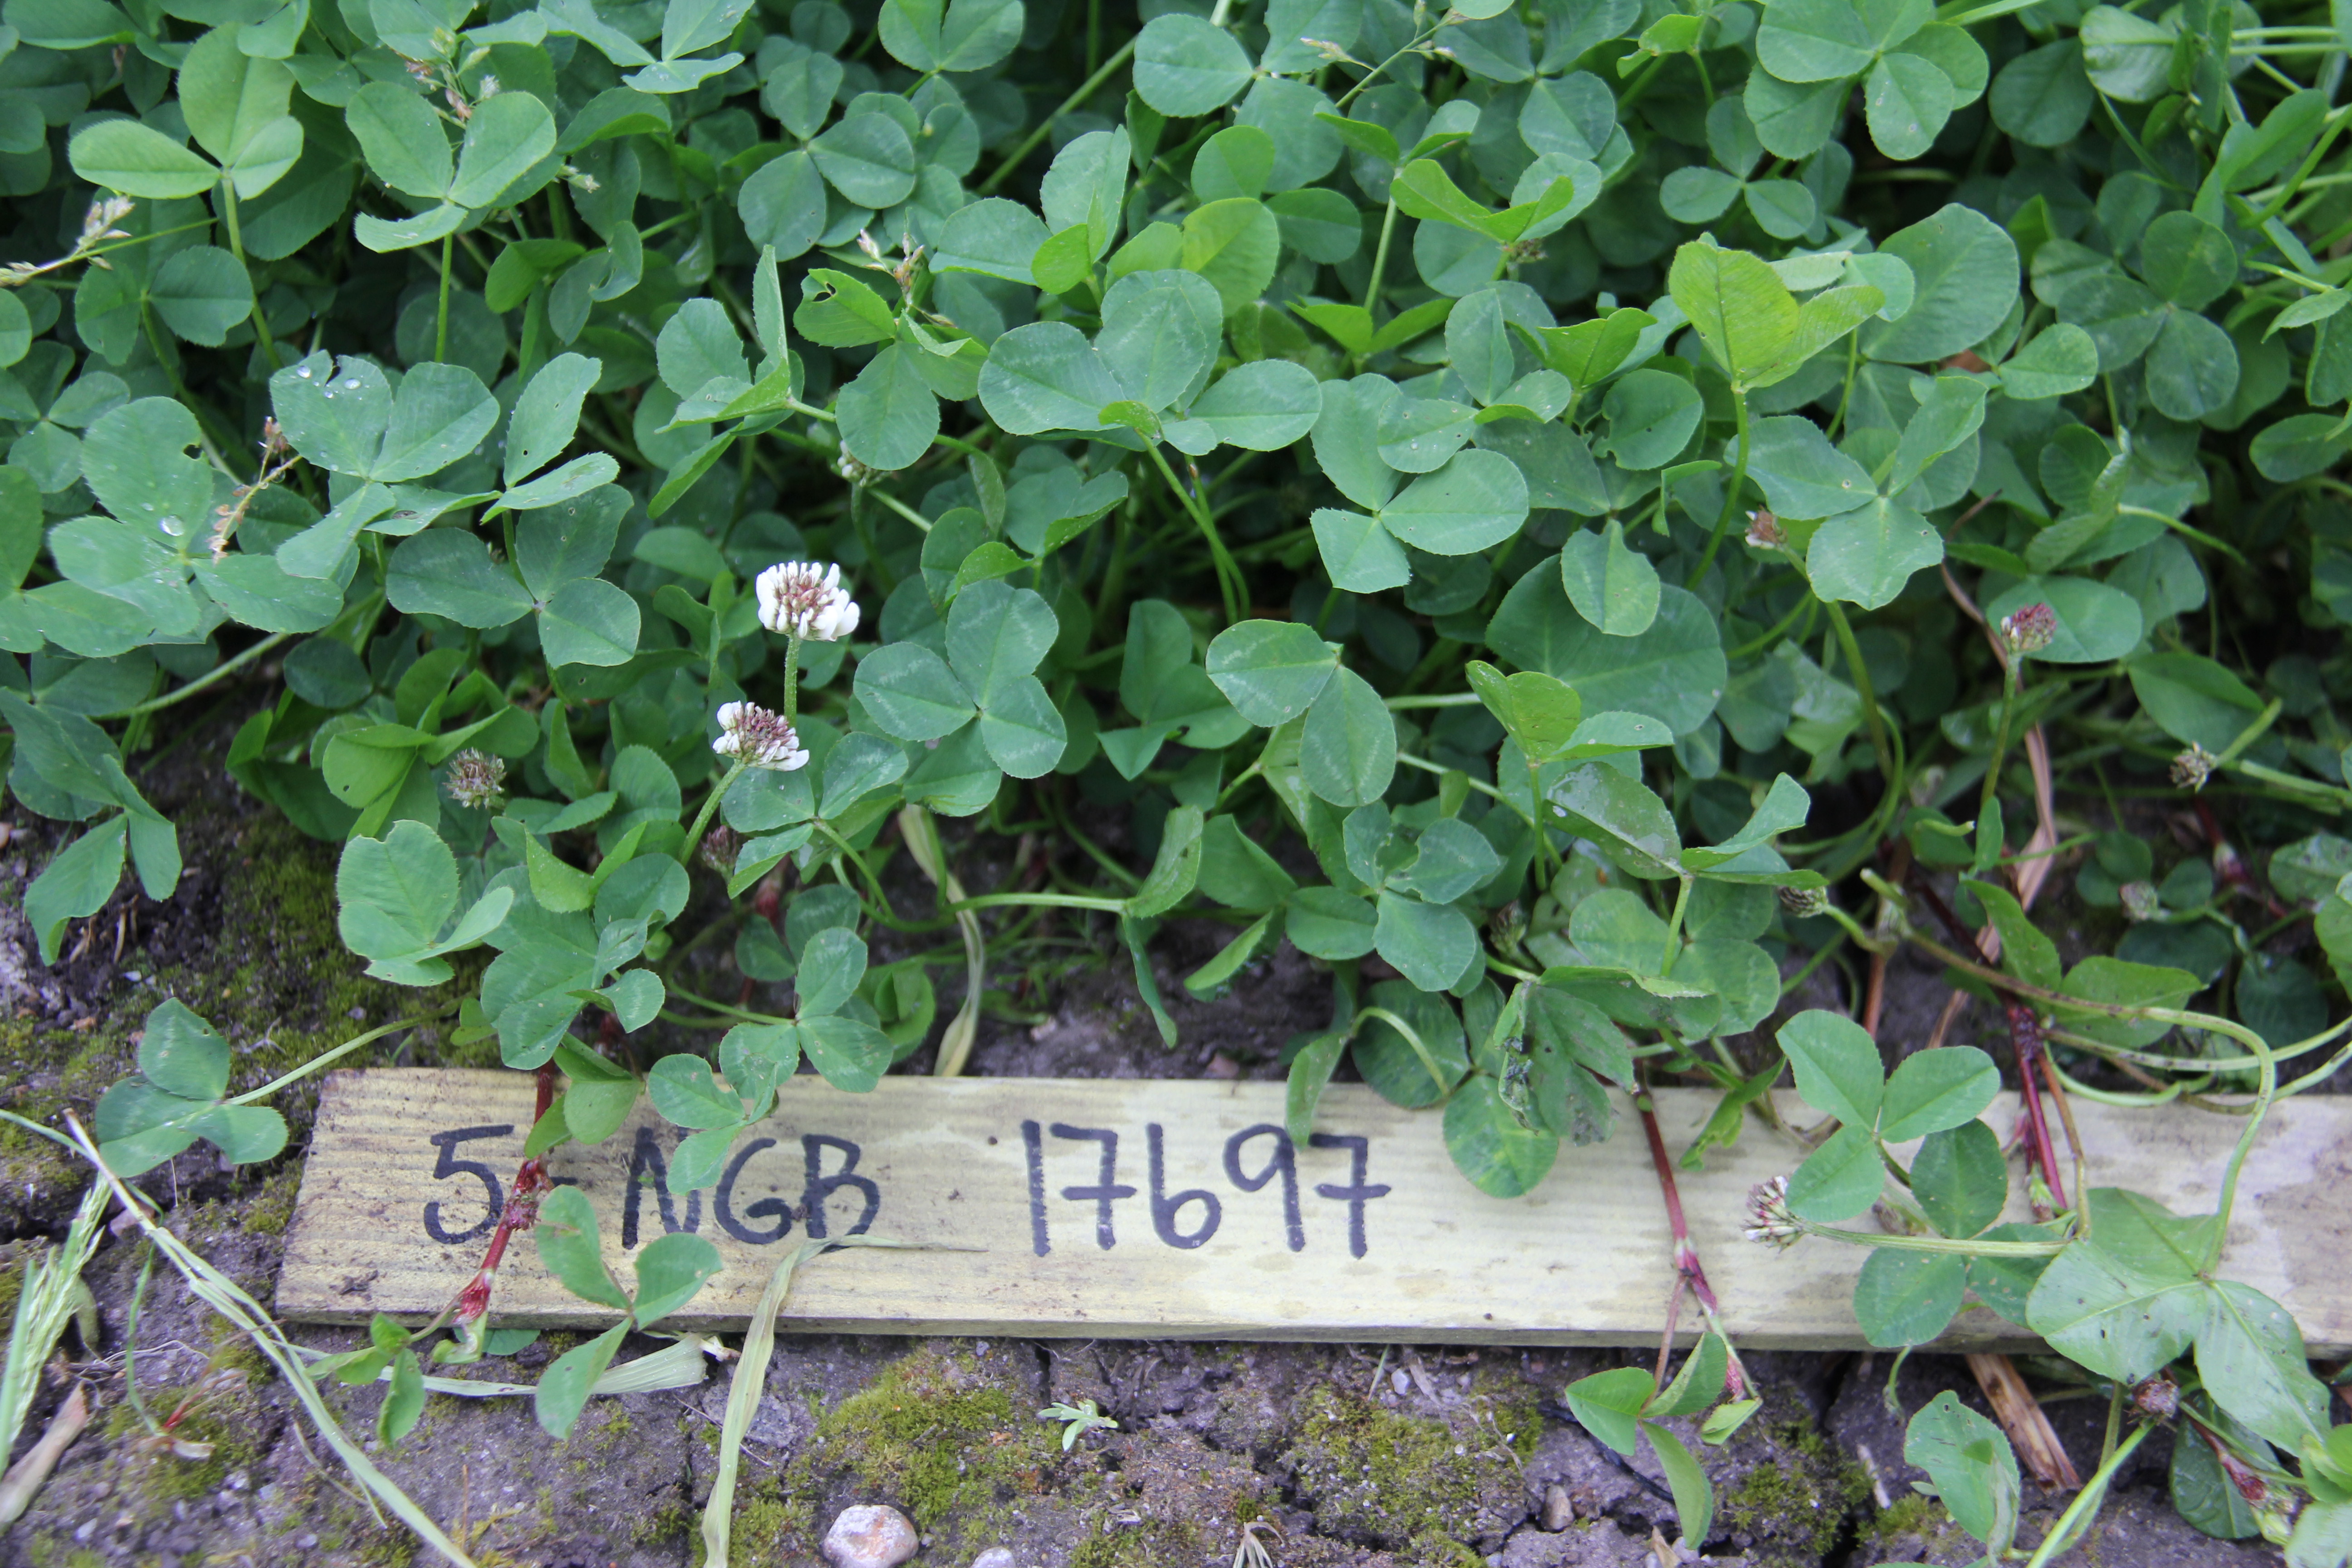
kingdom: Plantae
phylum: Tracheophyta
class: Magnoliopsida
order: Fabales
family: Fabaceae
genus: Trifolium
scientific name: Trifolium repens
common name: White clover
